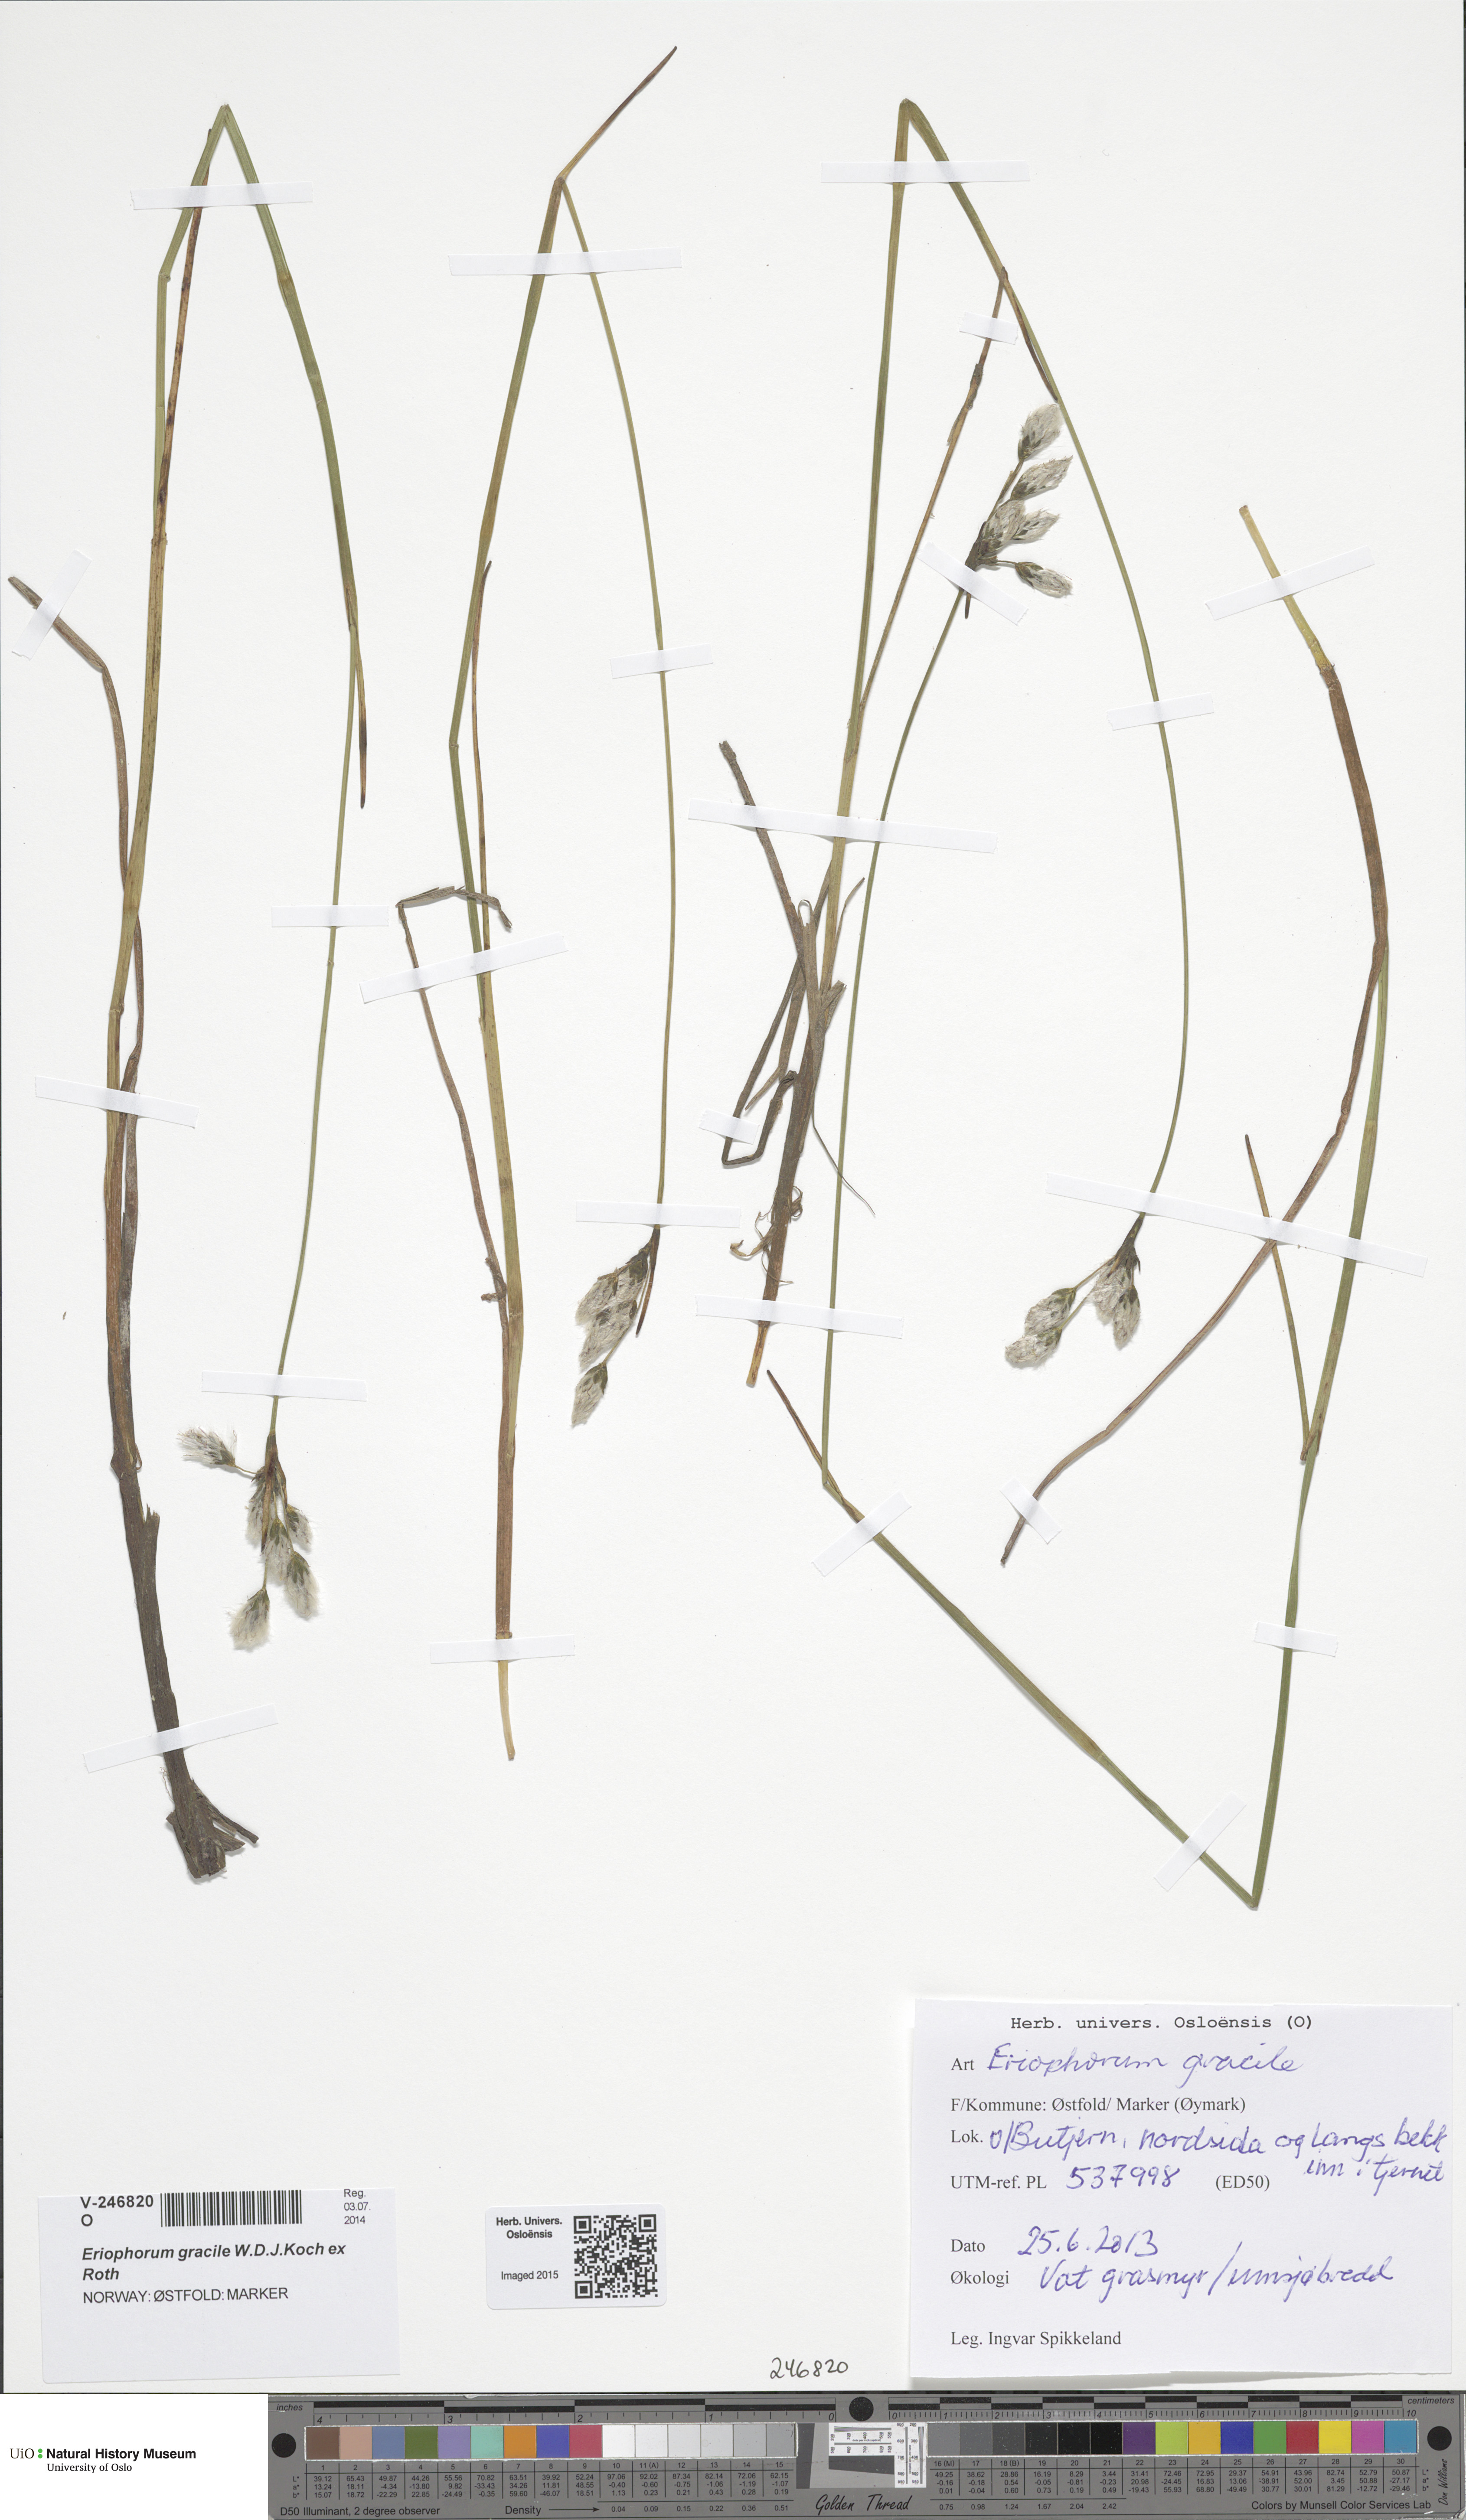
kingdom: Plantae
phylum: Tracheophyta
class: Liliopsida
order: Poales
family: Cyperaceae
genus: Eriophorum
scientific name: Eriophorum gracile
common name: Slender cottongrass
